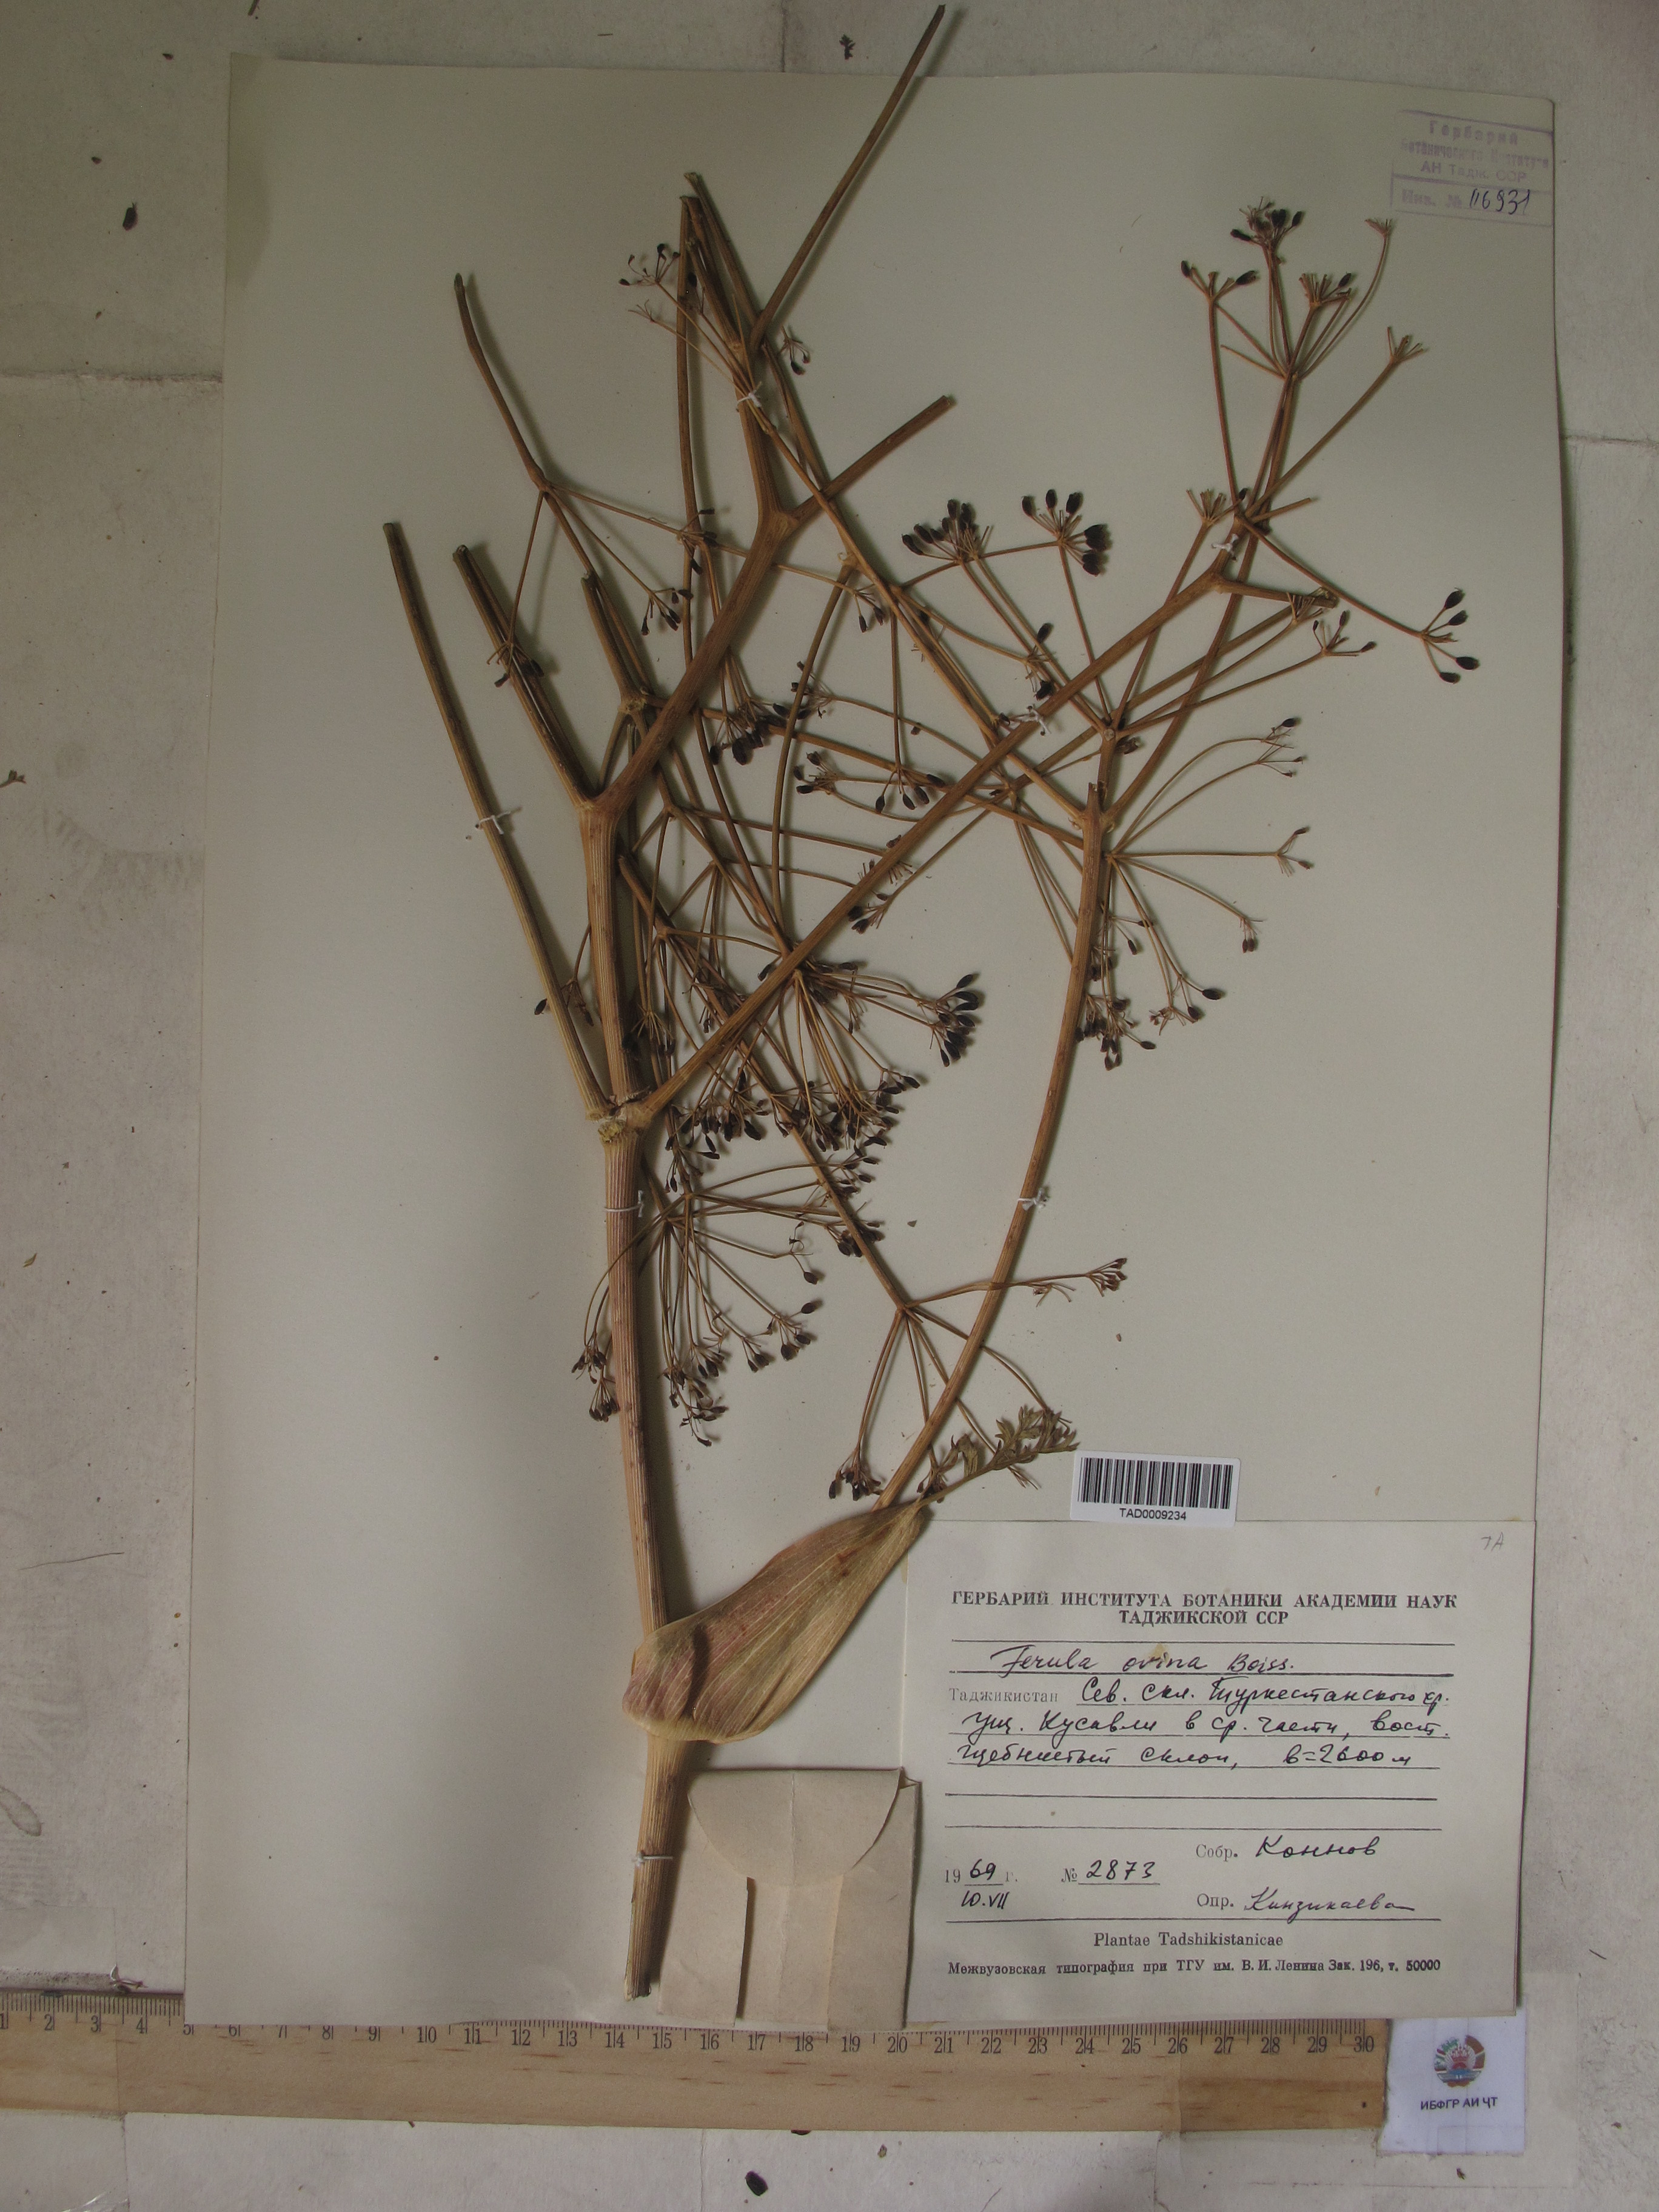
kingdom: Plantae
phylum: Tracheophyta
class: Magnoliopsida
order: Apiales
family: Apiaceae
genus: Ferula
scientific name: Ferula ovina
